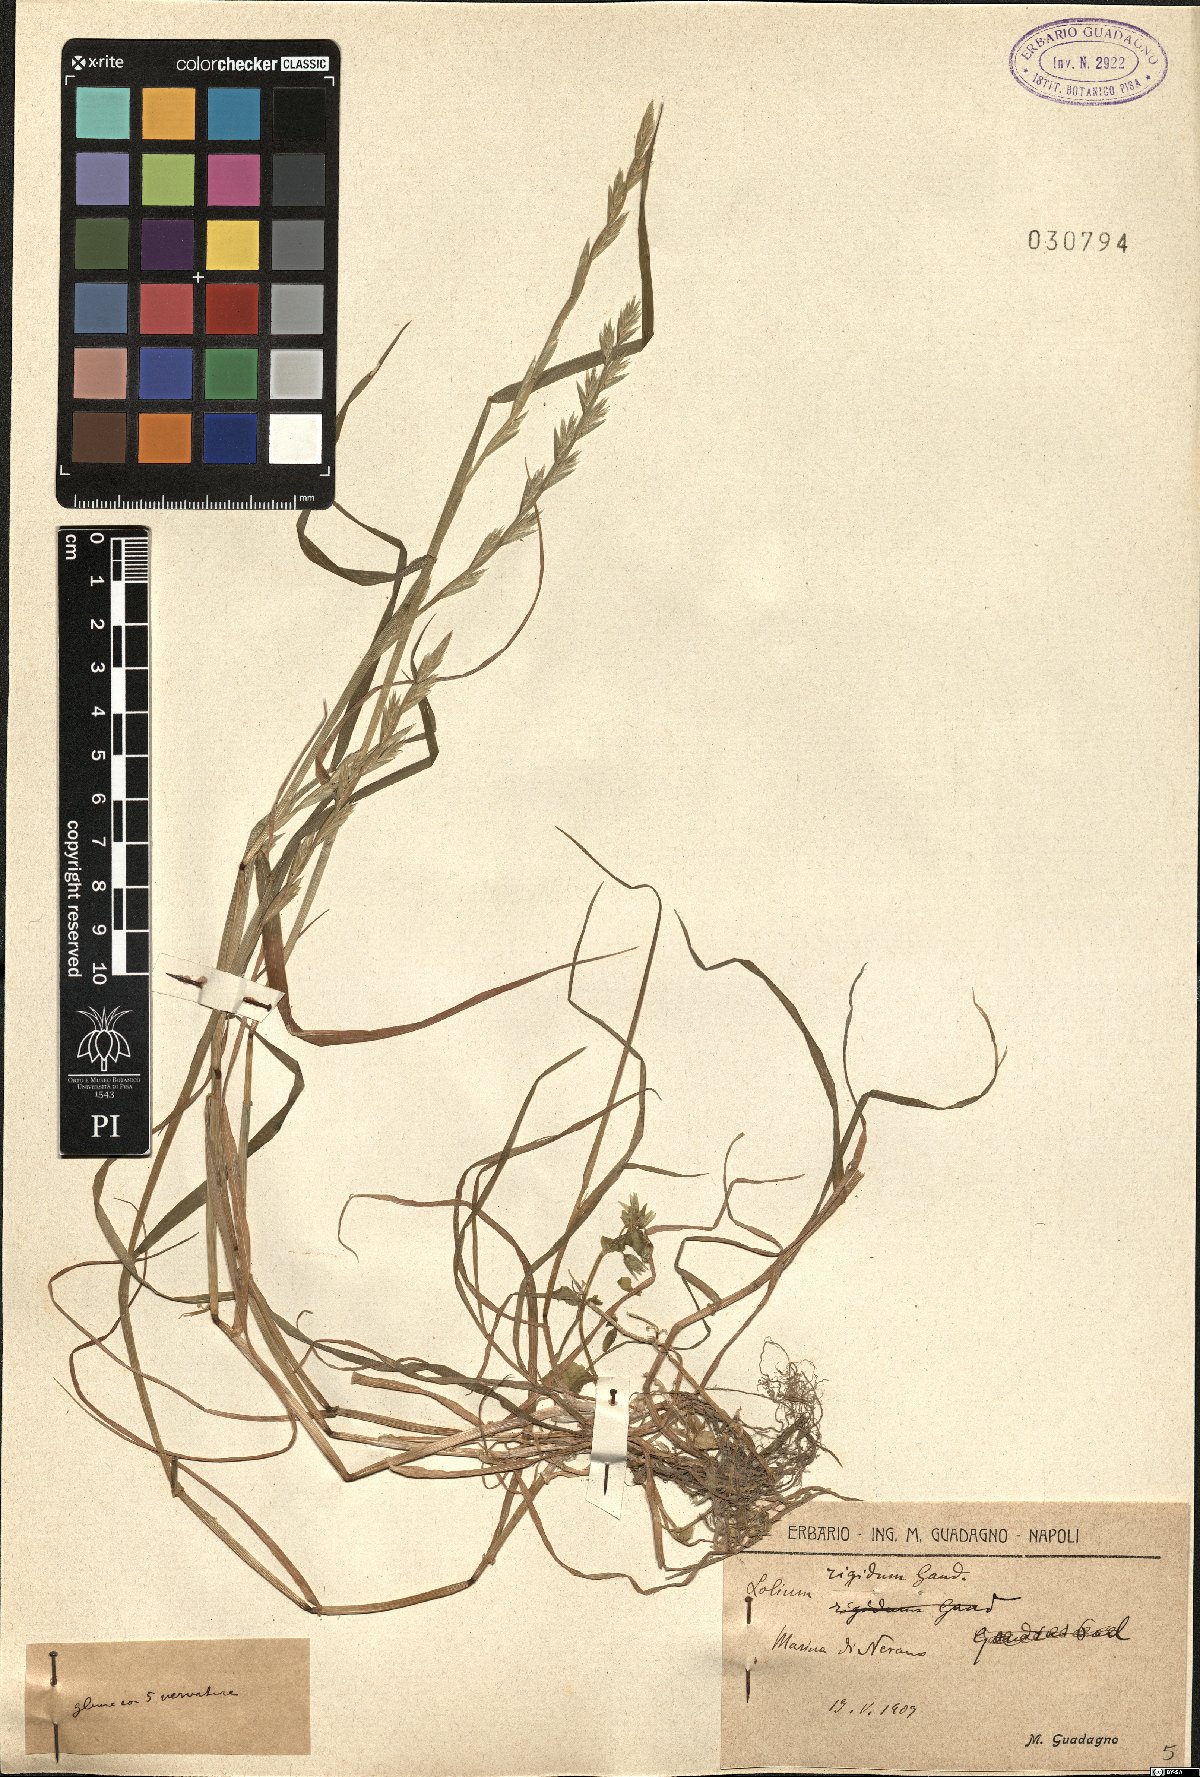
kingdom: Plantae
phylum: Tracheophyta
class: Liliopsida
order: Poales
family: Poaceae
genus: Lolium
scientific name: Lolium rigidum
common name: Wimmera ryegrass
